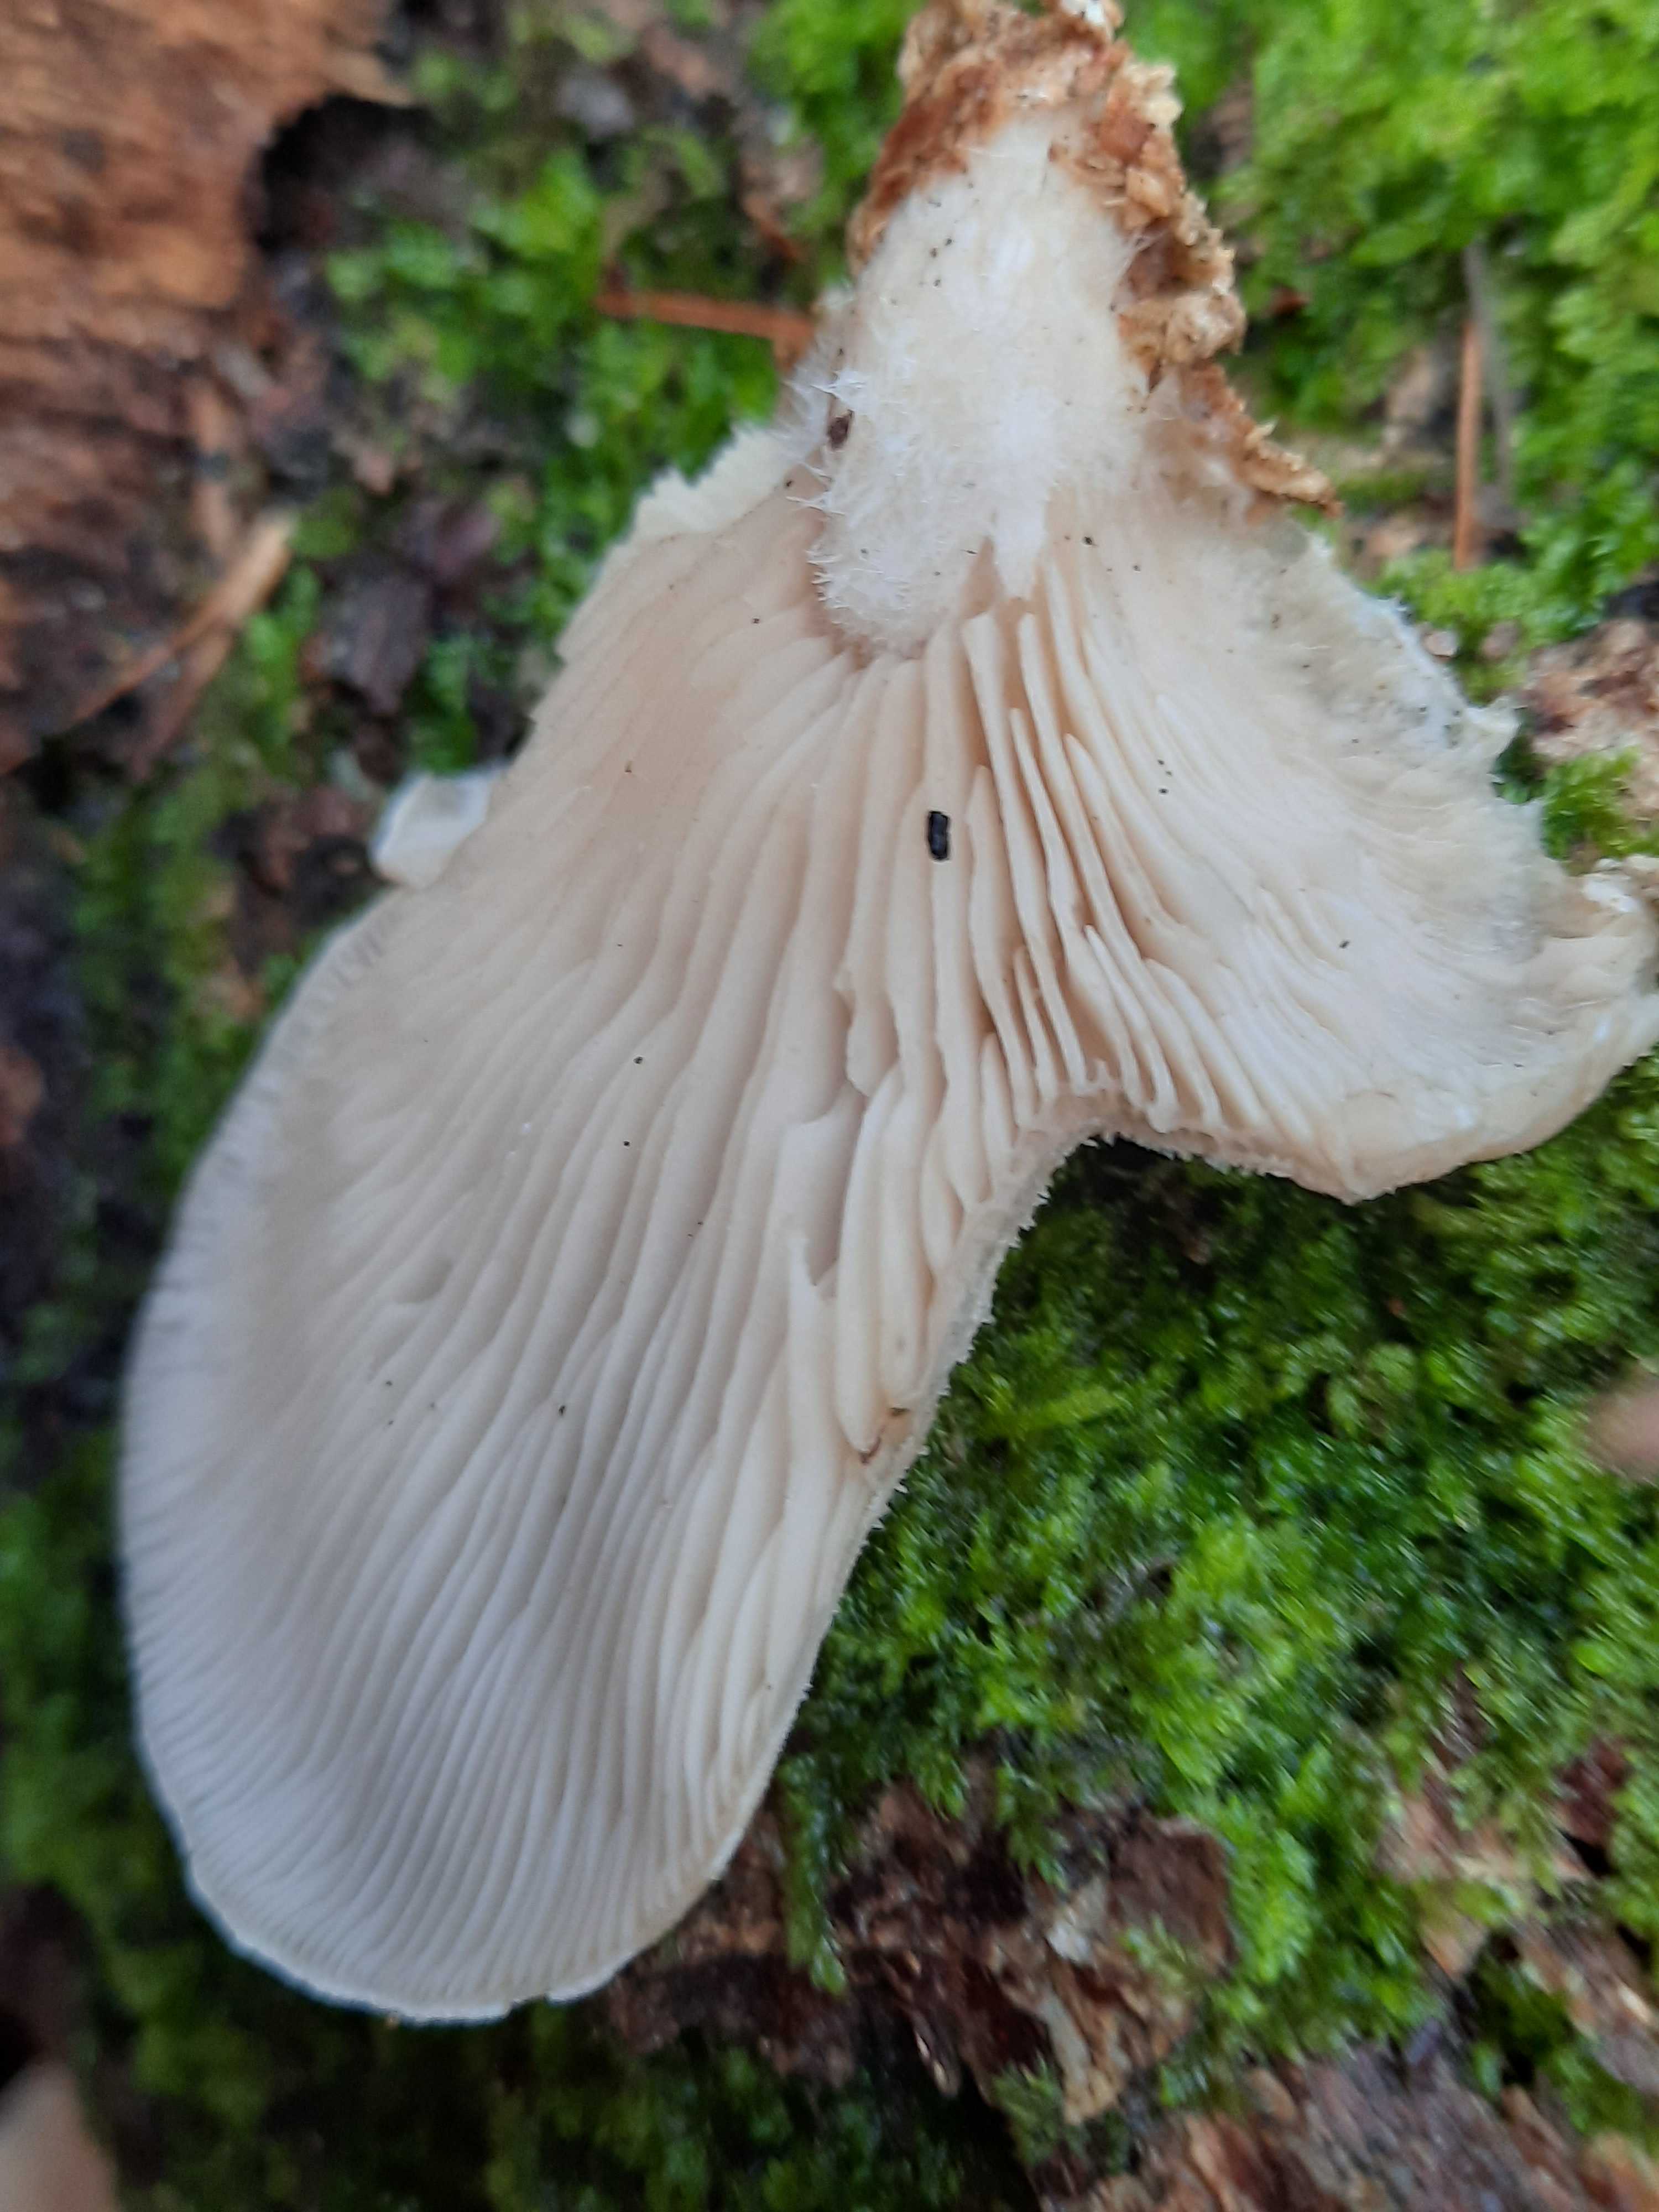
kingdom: Fungi
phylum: Basidiomycota
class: Agaricomycetes
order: Agaricales
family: Pleurotaceae
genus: Pleurotus
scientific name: Pleurotus ostreatus
